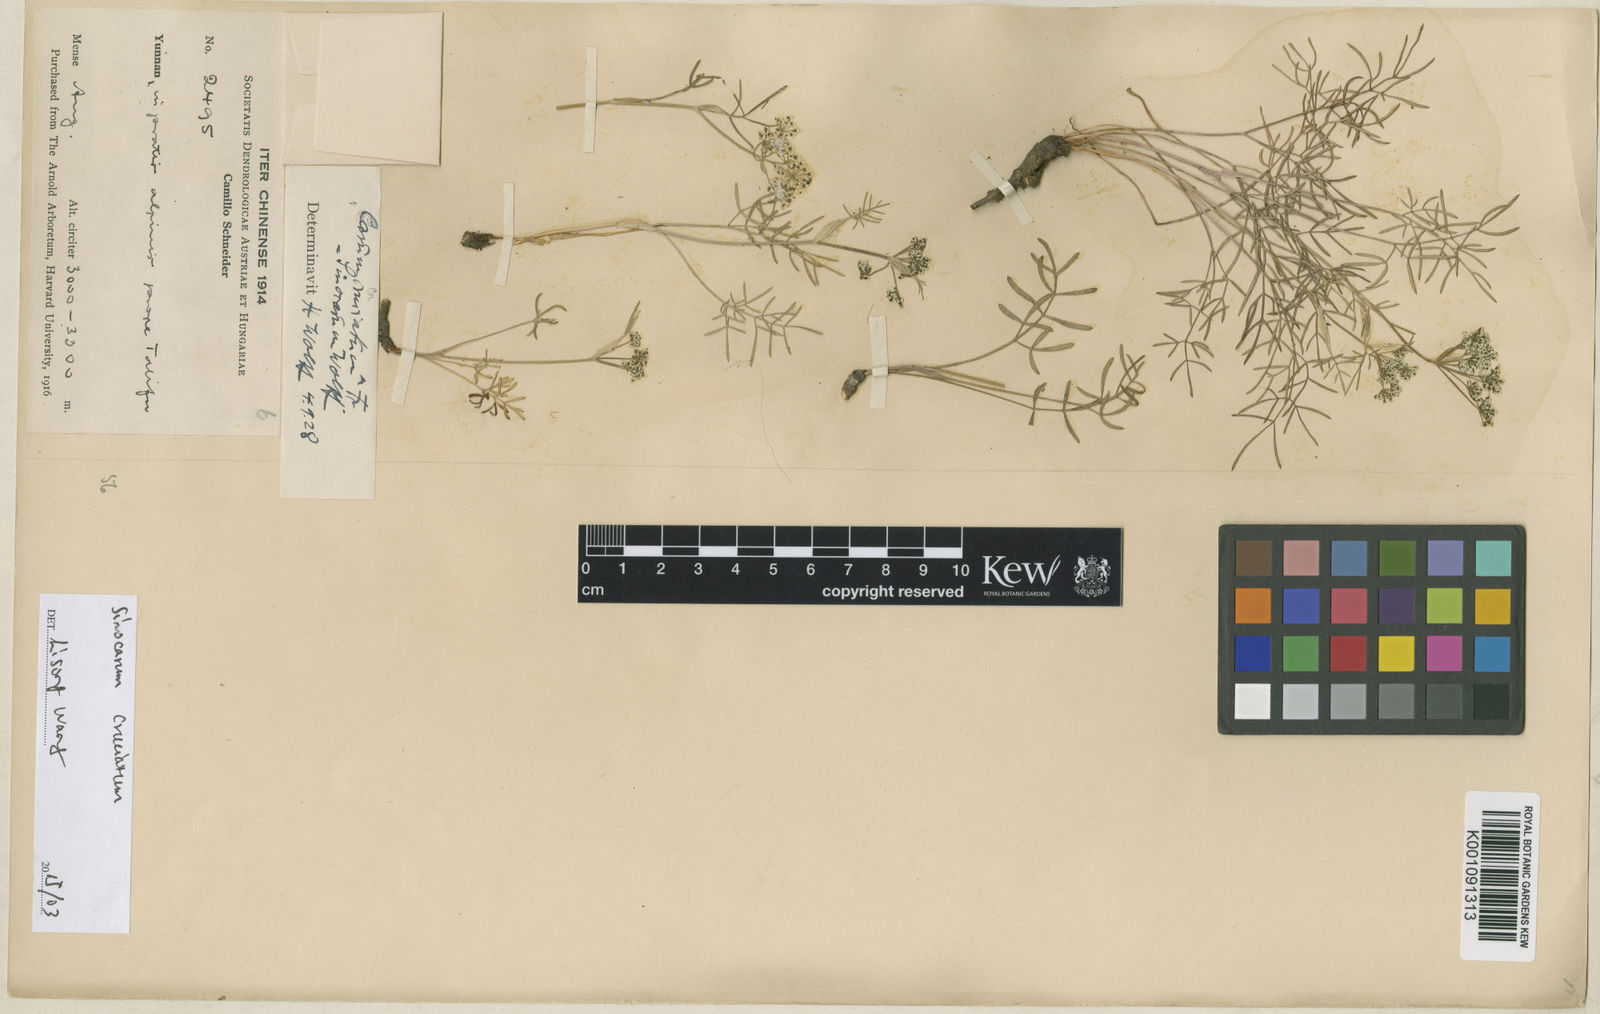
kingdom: Plantae
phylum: Tracheophyta
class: Magnoliopsida
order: Apiales
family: Apiaceae
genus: Sinocarum
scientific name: Sinocarum cruciatum
